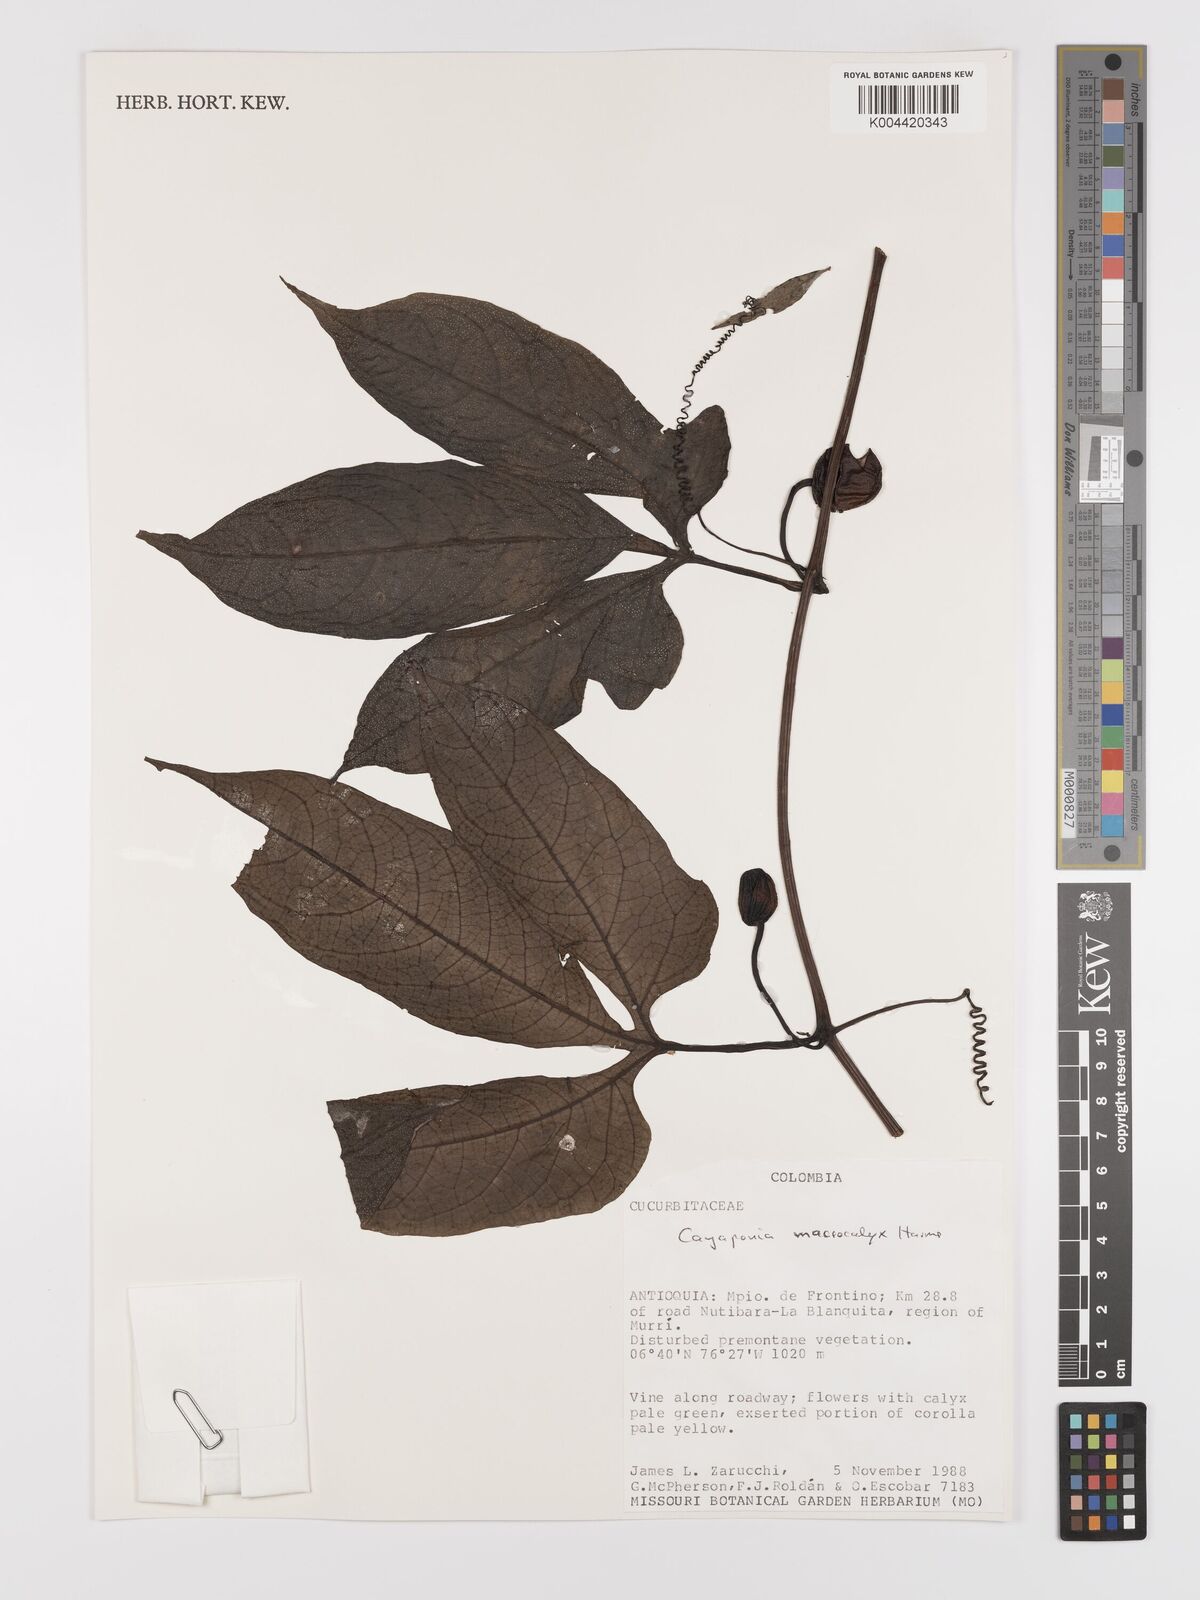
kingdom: Plantae
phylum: Tracheophyta
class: Magnoliopsida
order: Cucurbitales
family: Cucurbitaceae
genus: Cayaponia
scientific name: Cayaponia macrocalyx
